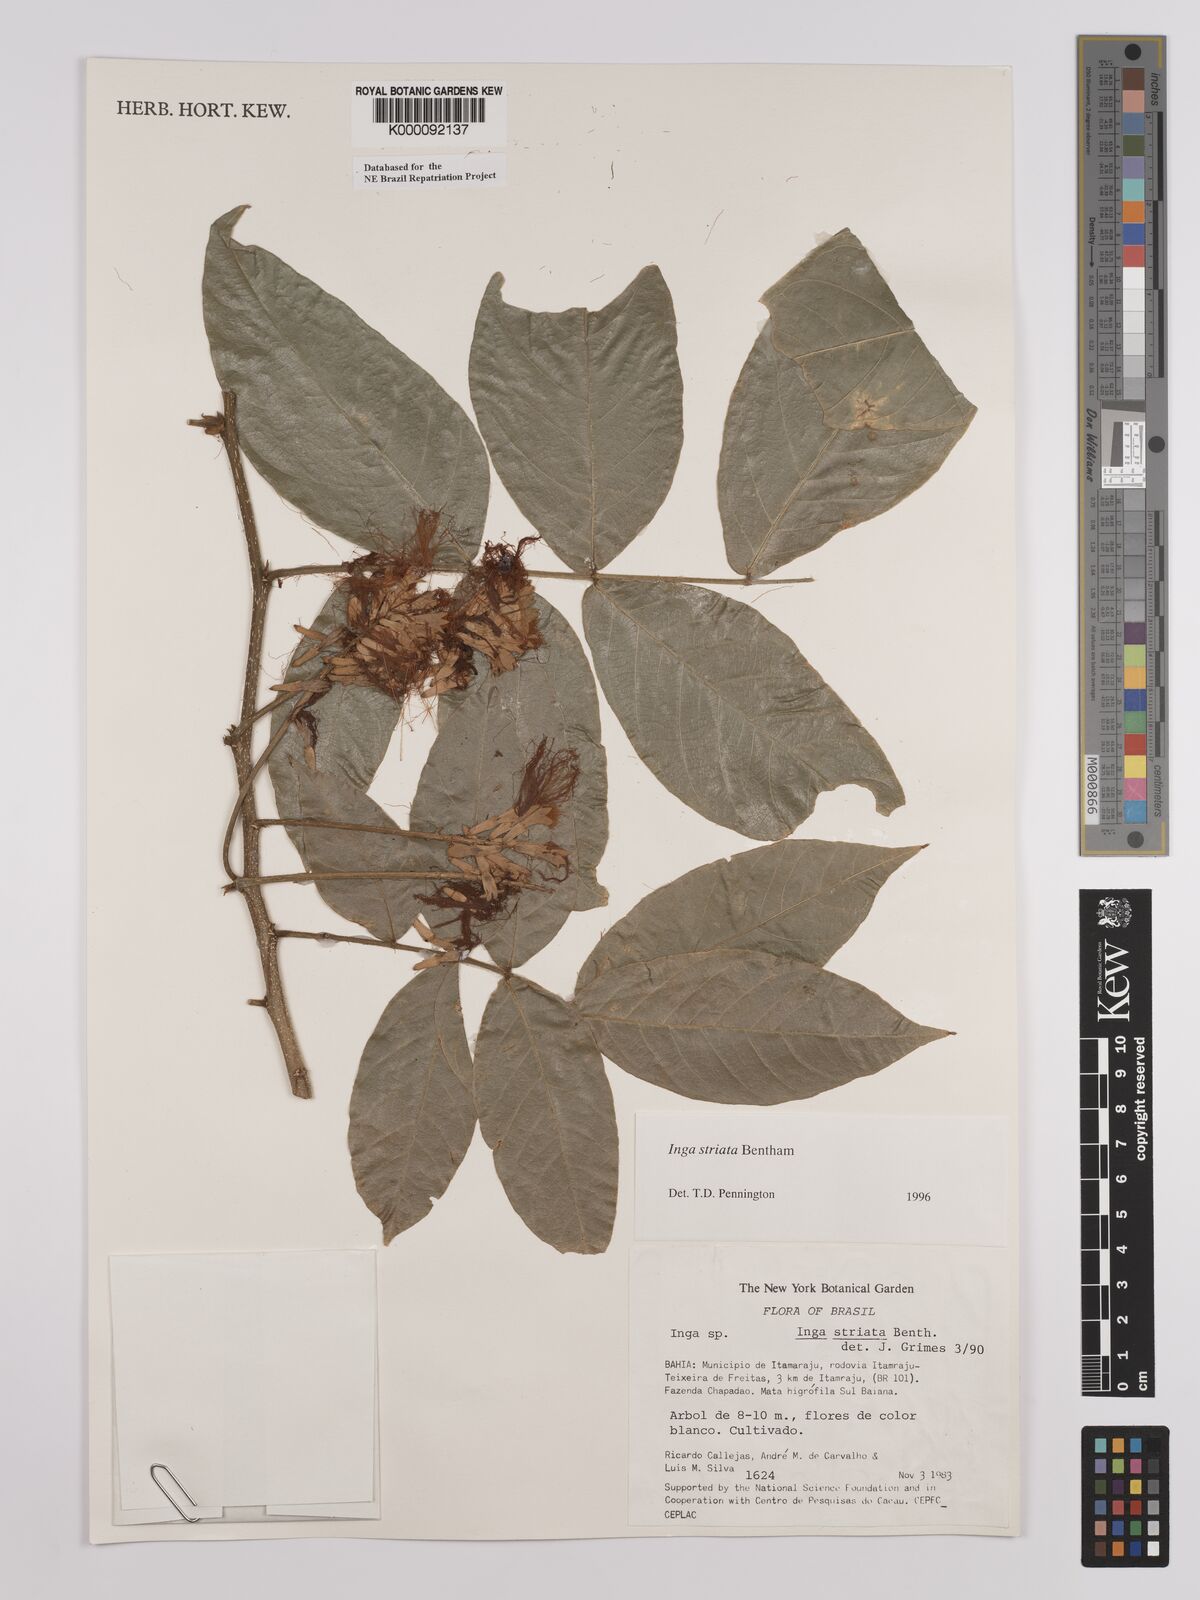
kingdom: Plantae
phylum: Tracheophyta
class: Magnoliopsida
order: Fabales
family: Fabaceae
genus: Inga
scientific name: Inga striata
